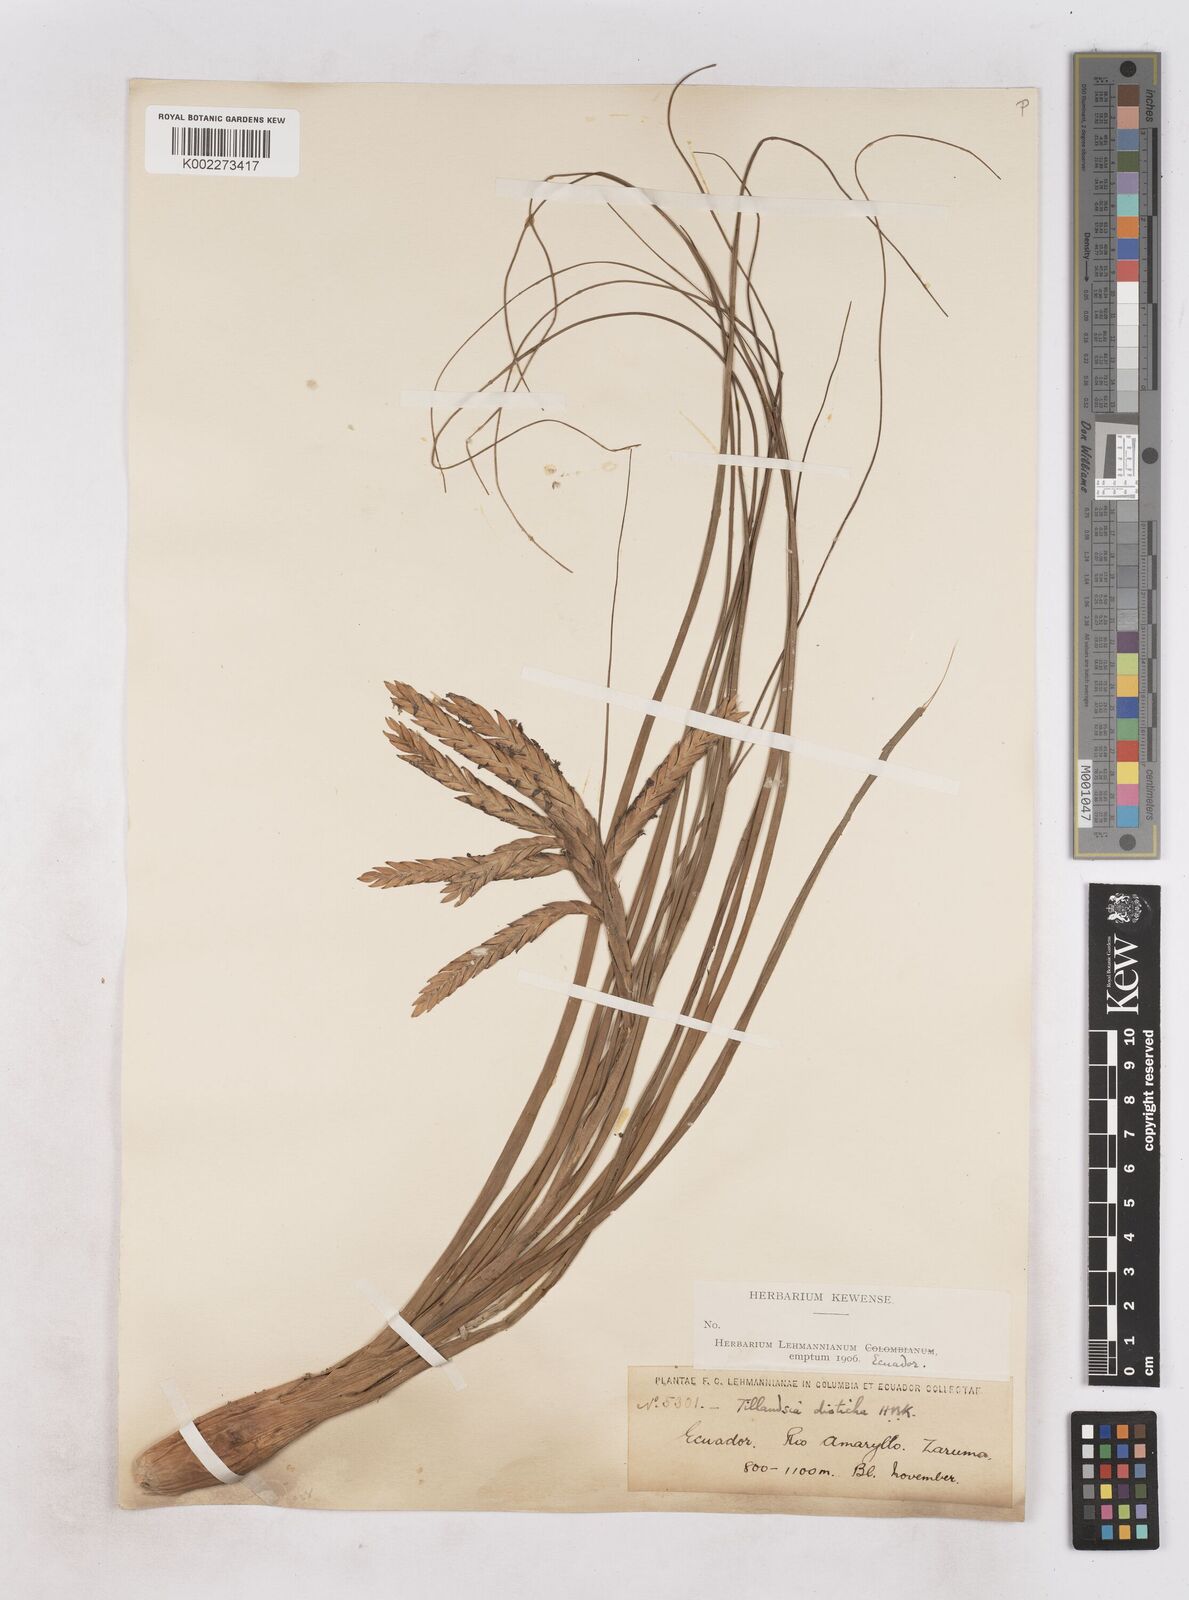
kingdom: Plantae
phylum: Tracheophyta
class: Liliopsida
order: Poales
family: Bromeliaceae
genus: Tillandsia
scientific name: Tillandsia
